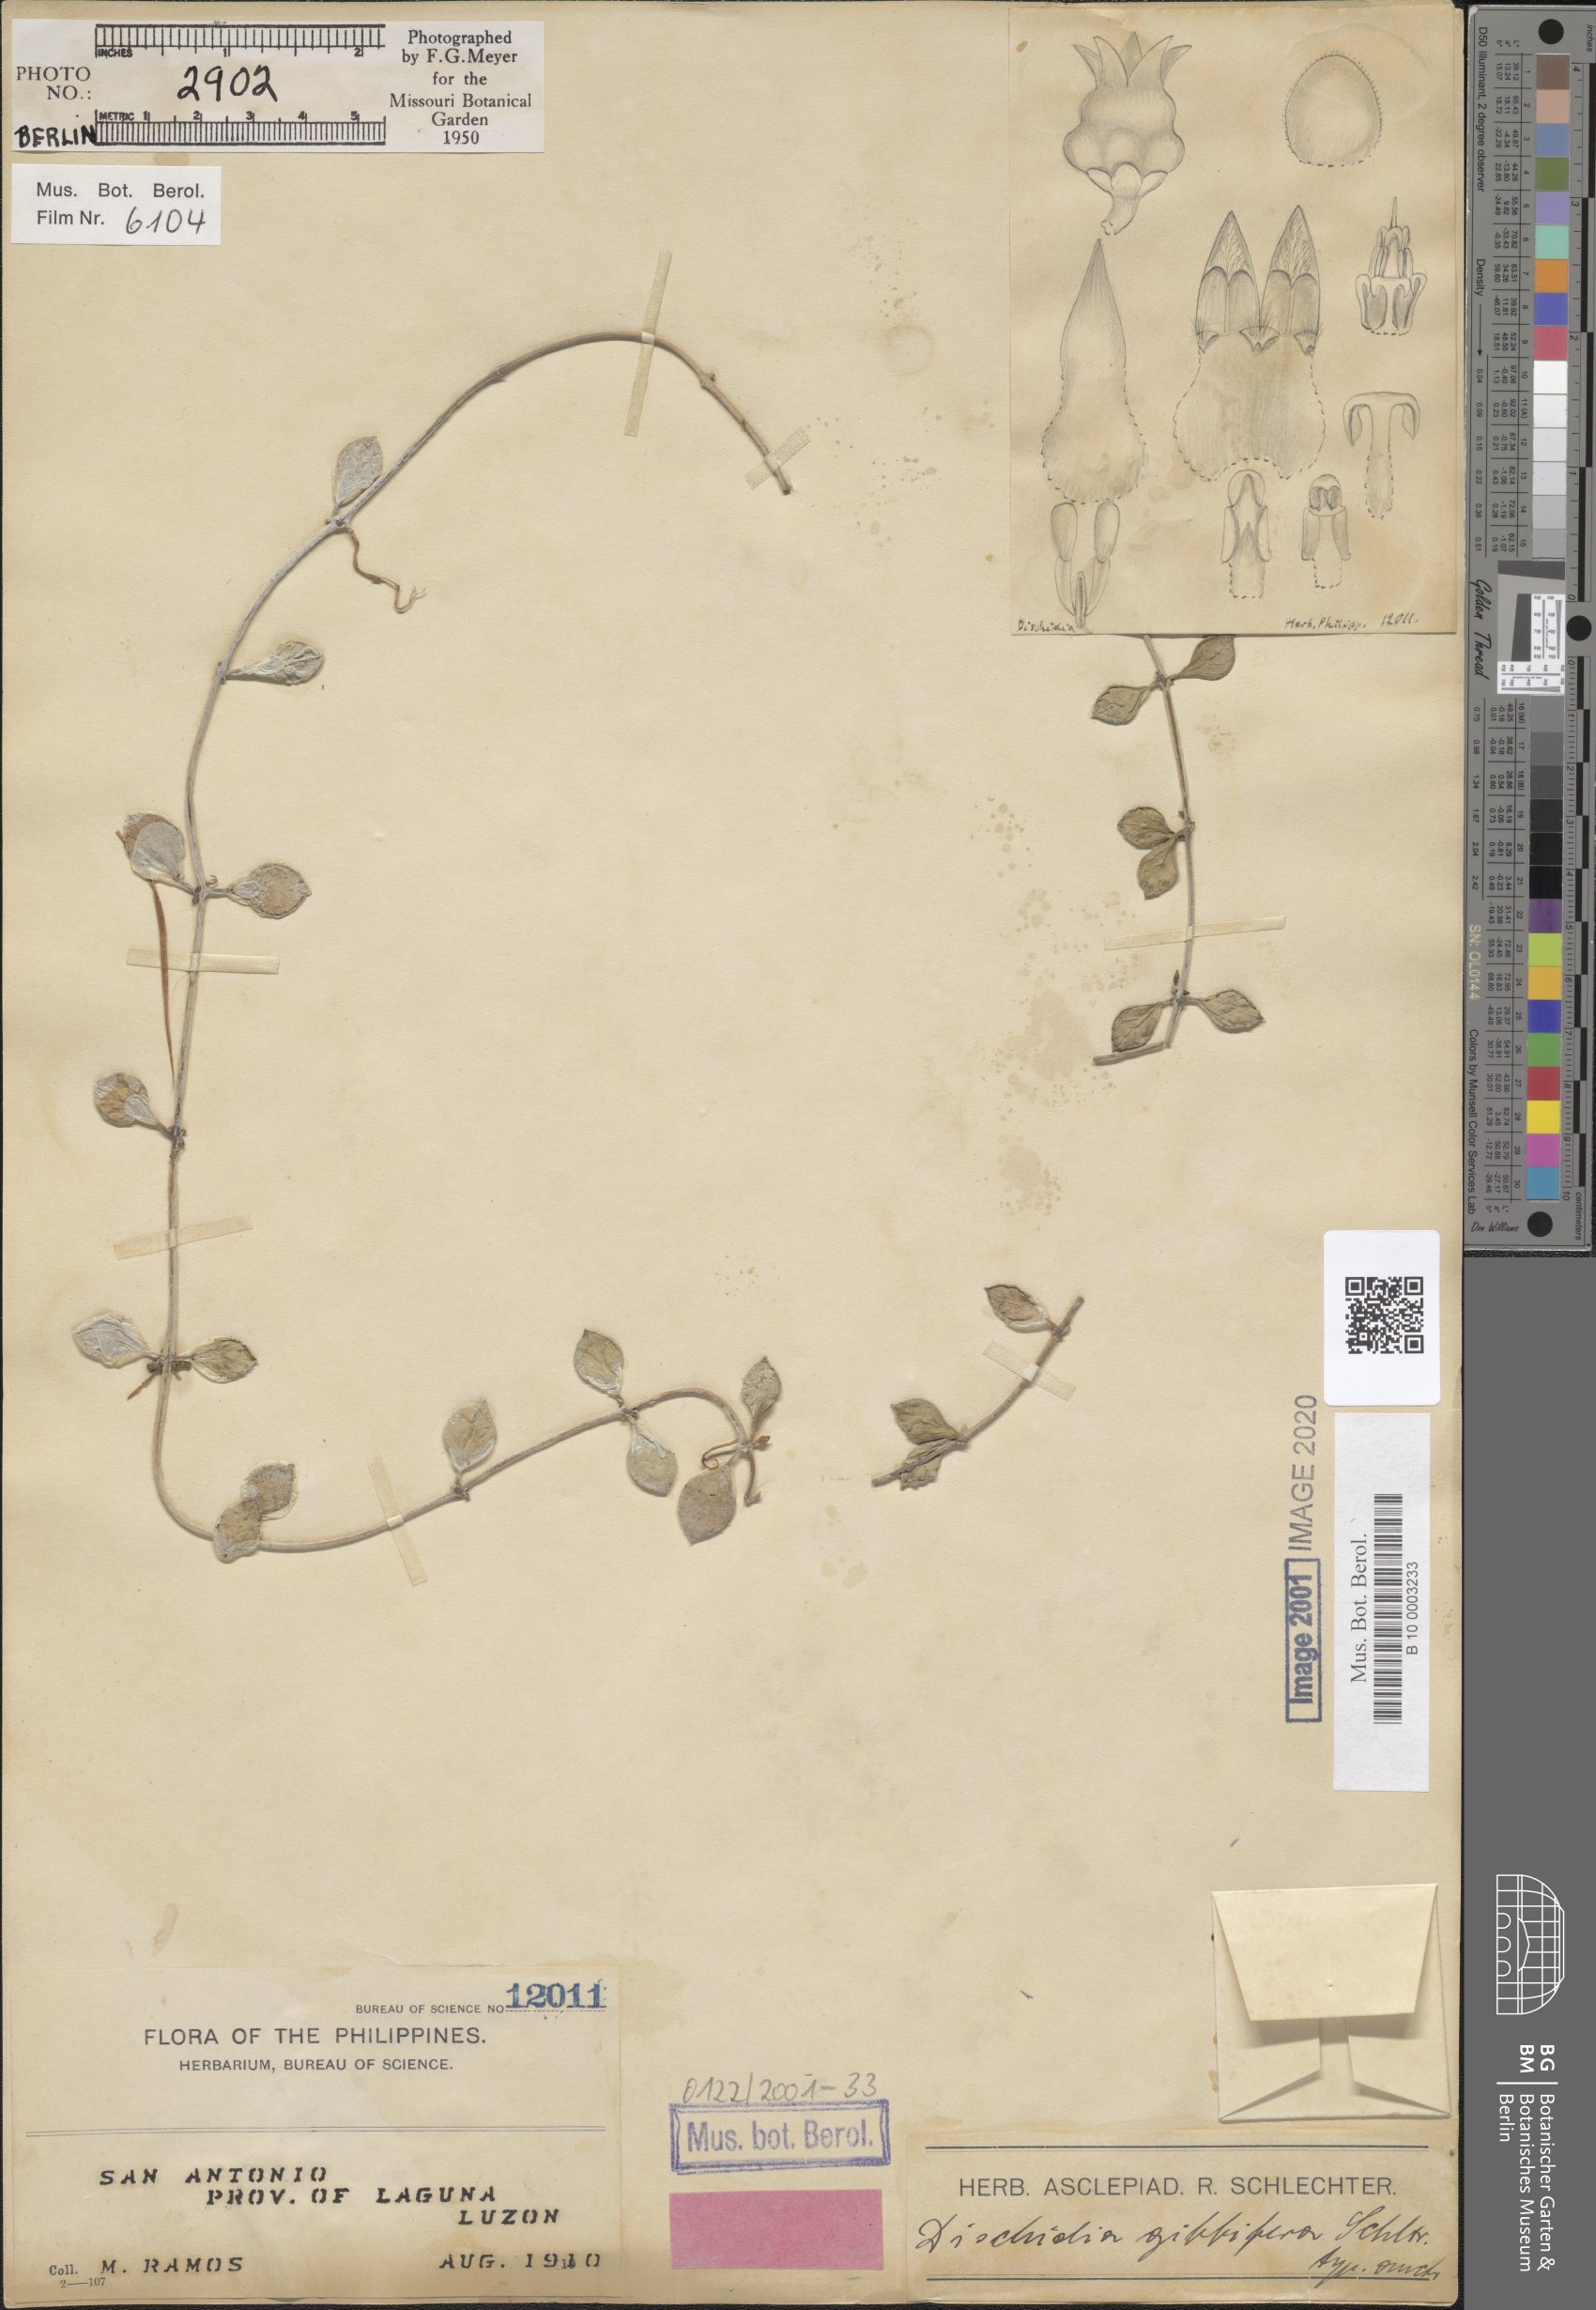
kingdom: Plantae
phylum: Tracheophyta
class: Magnoliopsida
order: Gentianales
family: Apocynaceae
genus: Dischidia
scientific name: Dischidia gibbifera
